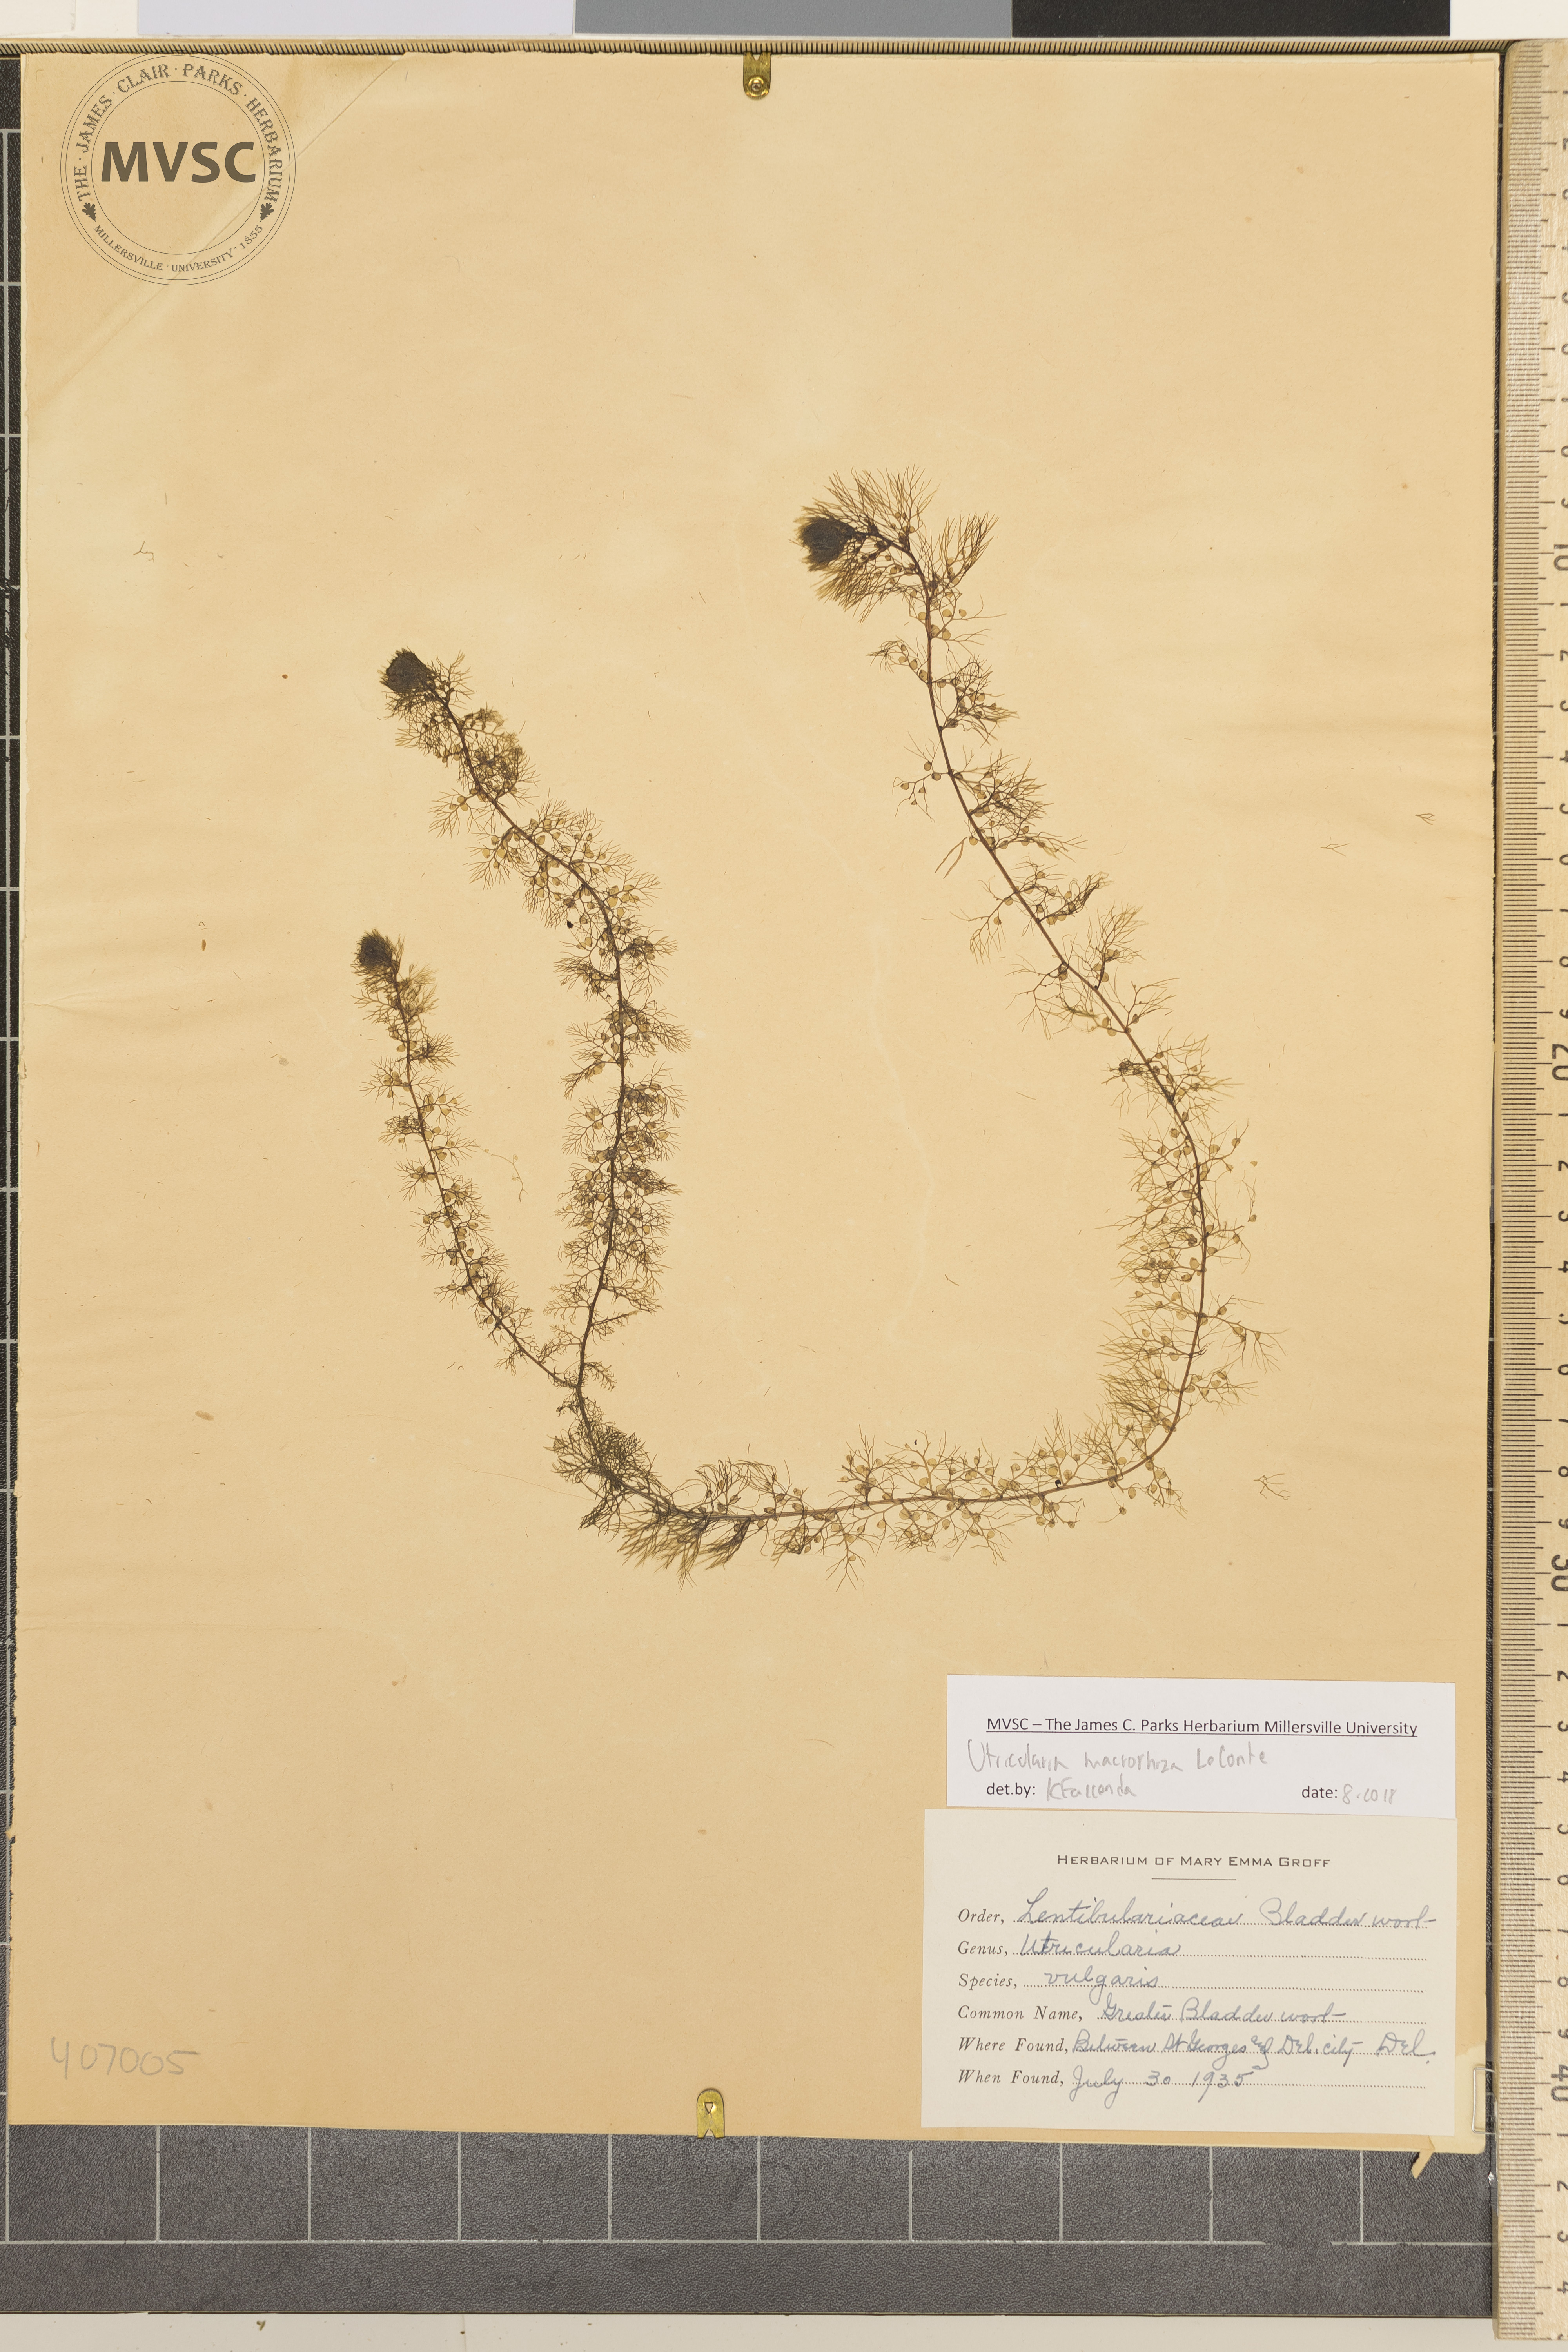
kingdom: Plantae
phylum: Tracheophyta
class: Magnoliopsida
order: Lamiales
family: Lentibulariaceae
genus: Utricularia
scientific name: Utricularia macrorhiza
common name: Greater Bladderwort
